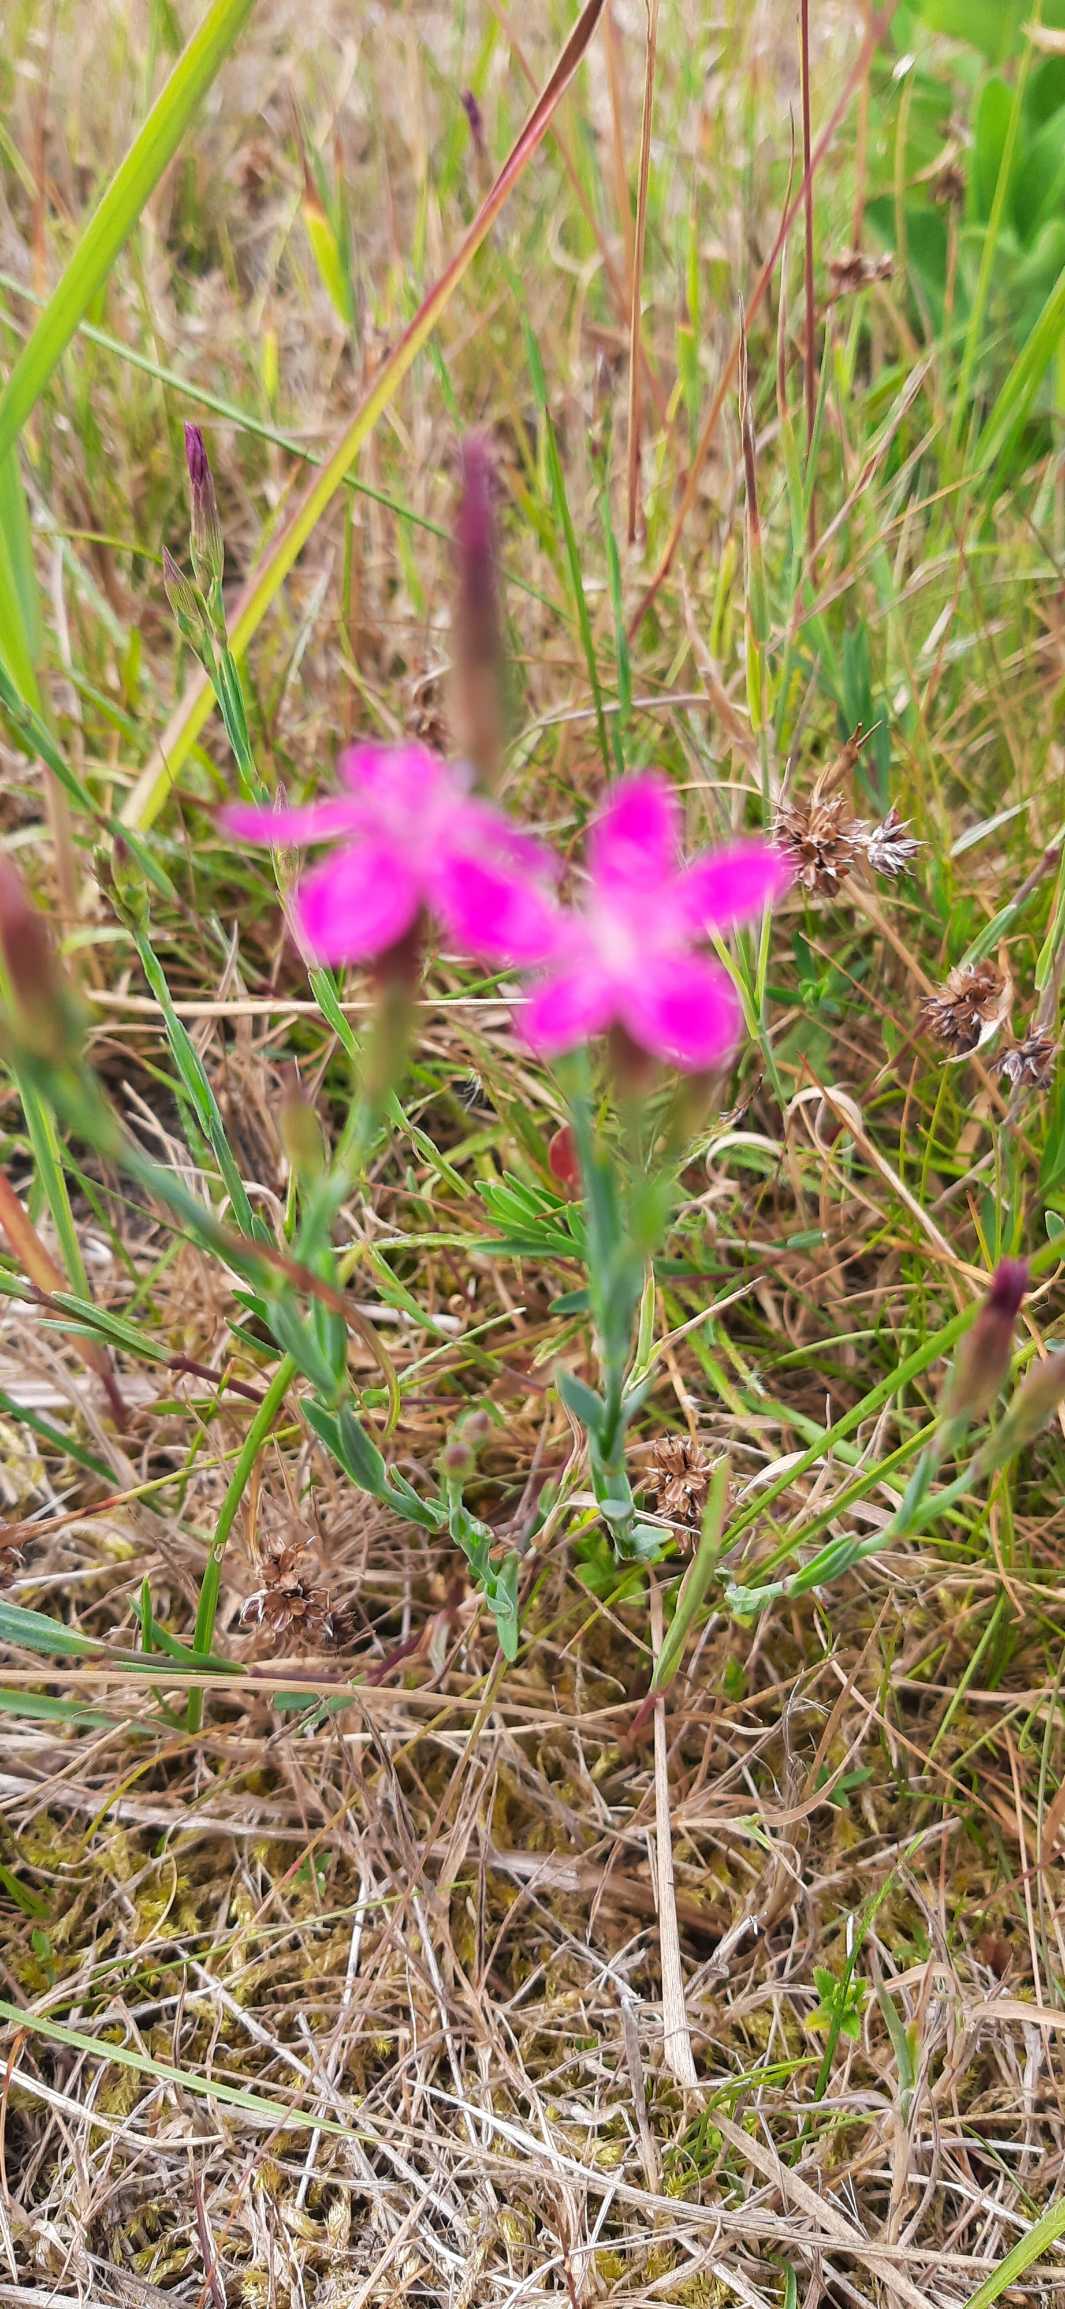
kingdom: Plantae
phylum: Tracheophyta
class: Magnoliopsida
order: Caryophyllales
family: Caryophyllaceae
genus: Dianthus
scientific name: Dianthus deltoides
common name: Bakke-nellike
